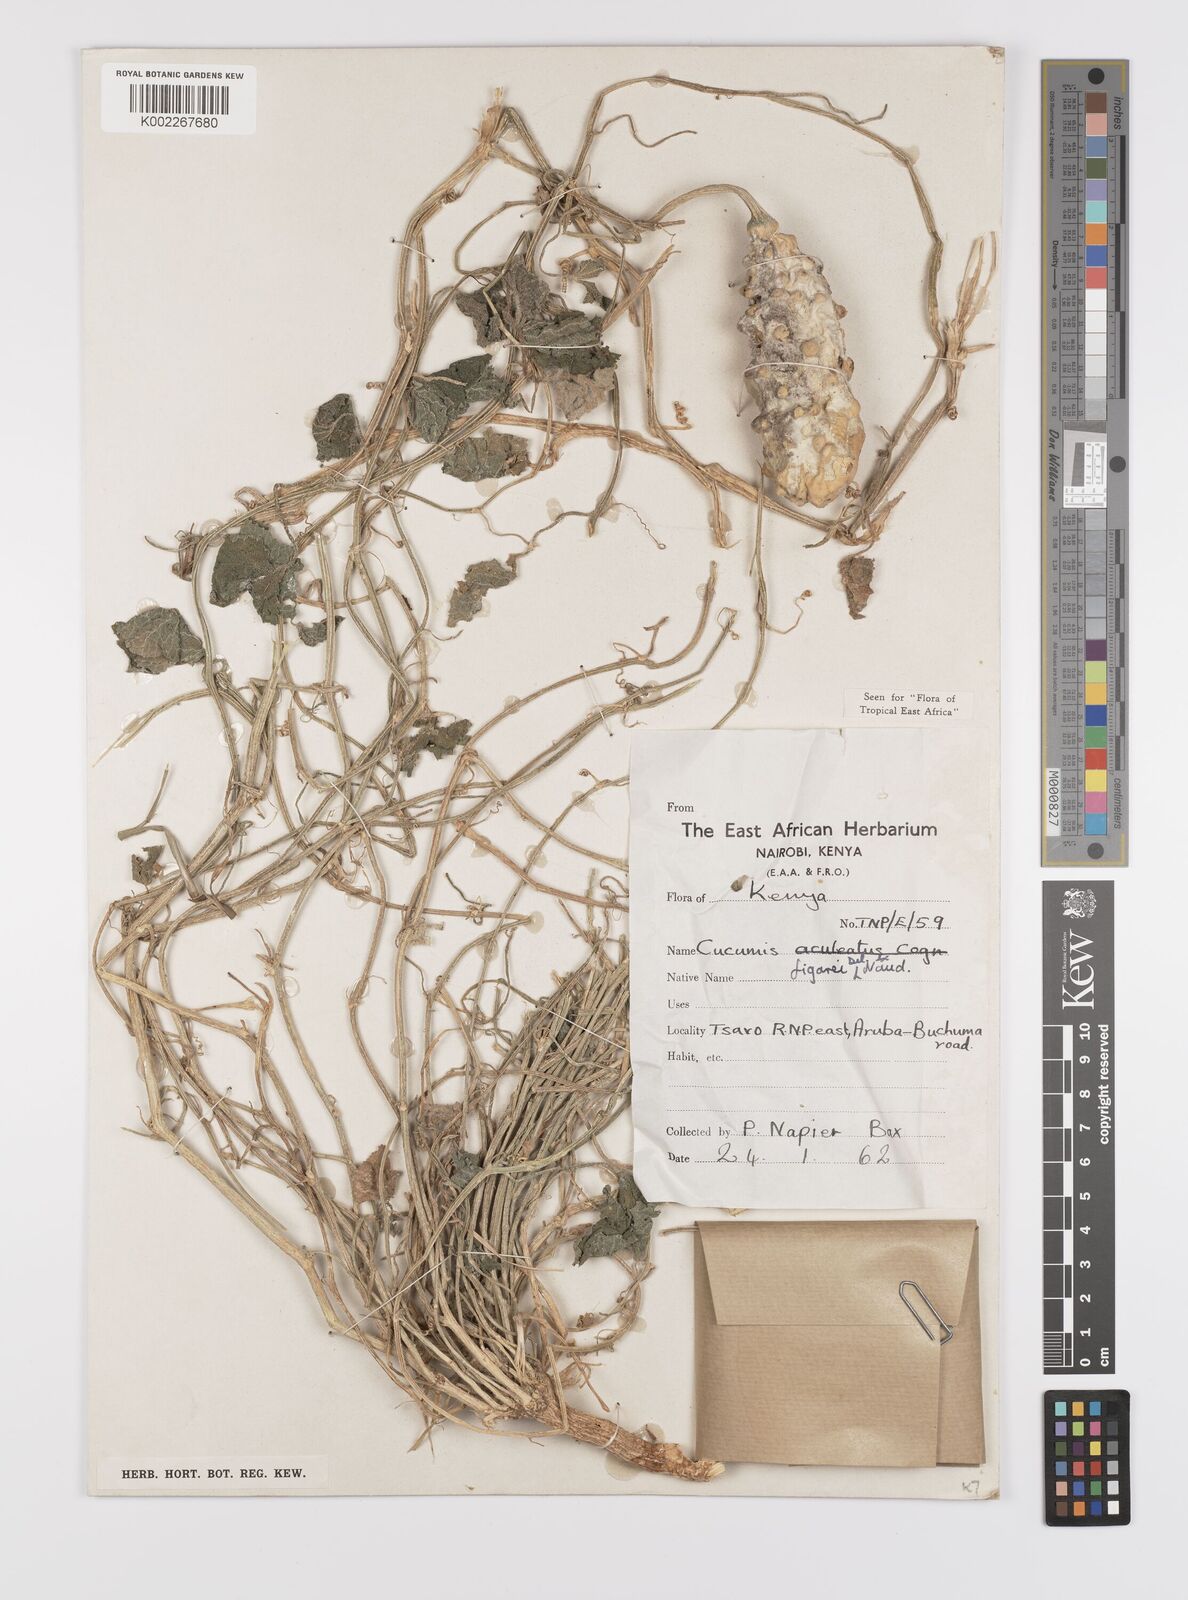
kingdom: Plantae
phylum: Tracheophyta
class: Magnoliopsida
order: Cucurbitales
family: Cucurbitaceae
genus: Cucumis
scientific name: Cucumis
